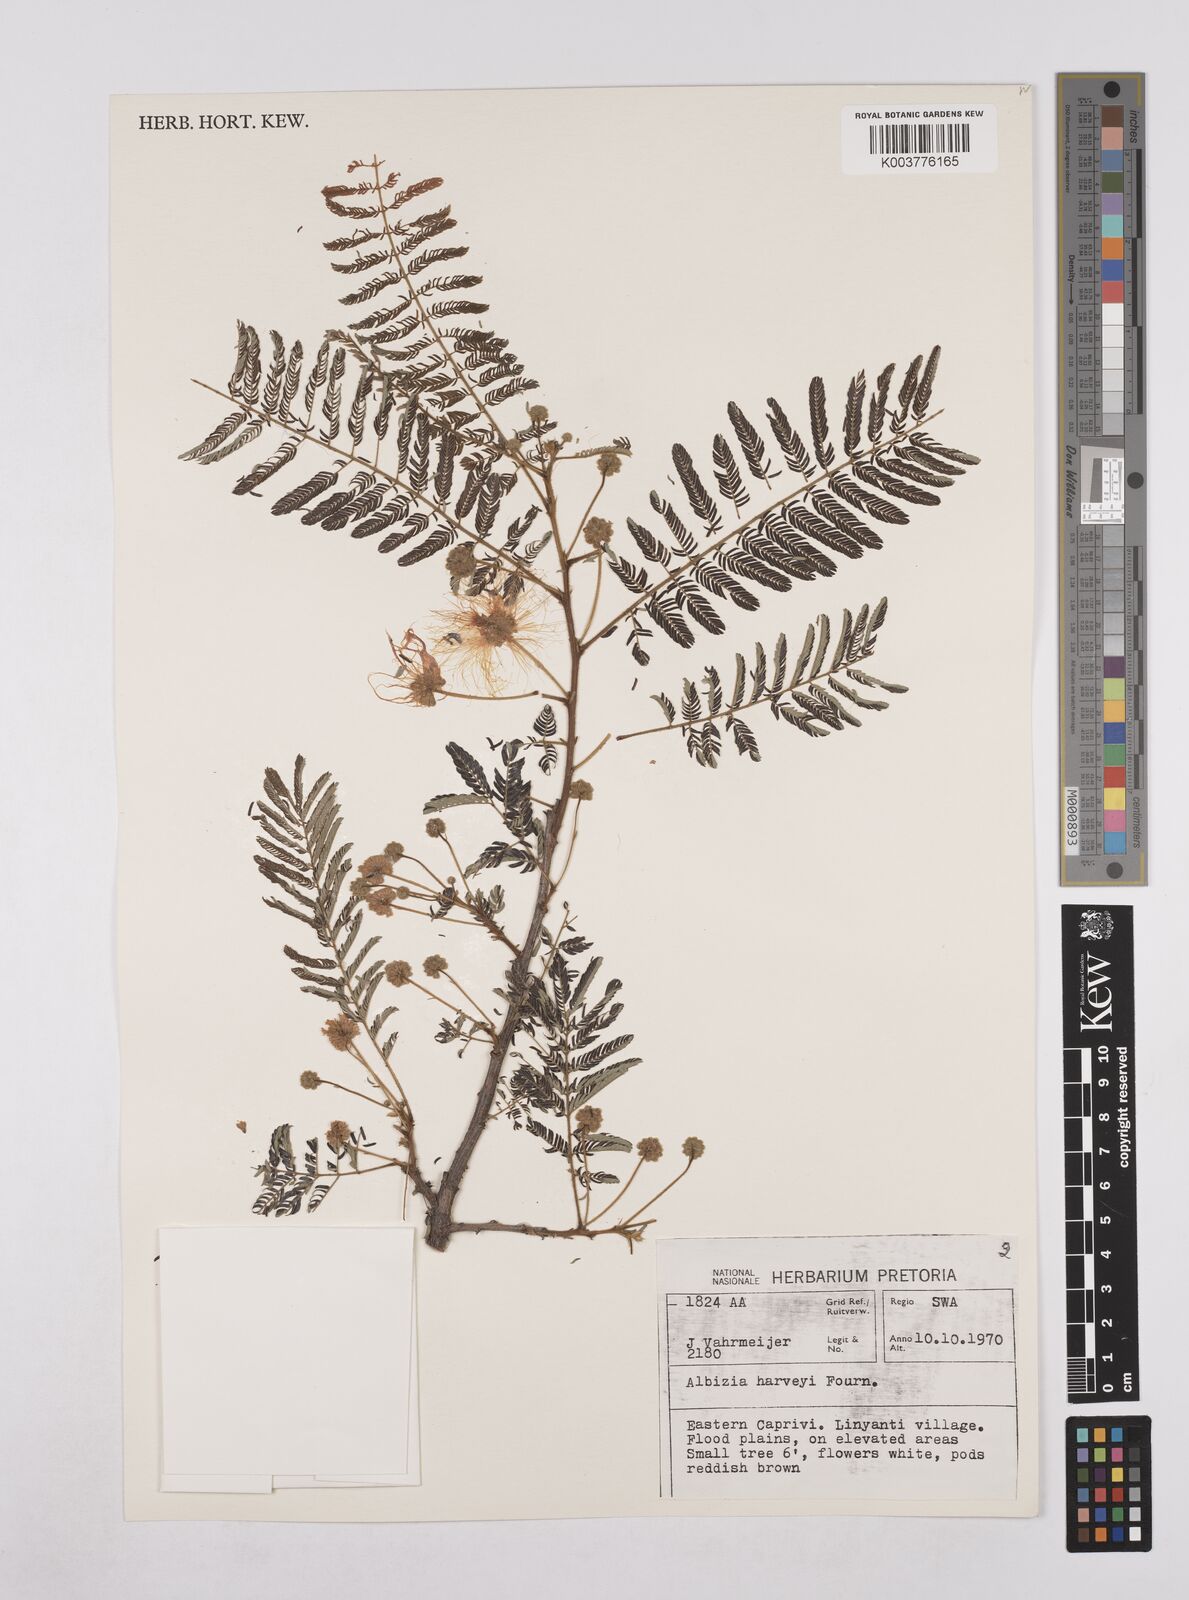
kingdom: Plantae
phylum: Tracheophyta
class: Magnoliopsida
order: Fabales
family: Fabaceae
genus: Albizia
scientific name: Albizia harveyi
